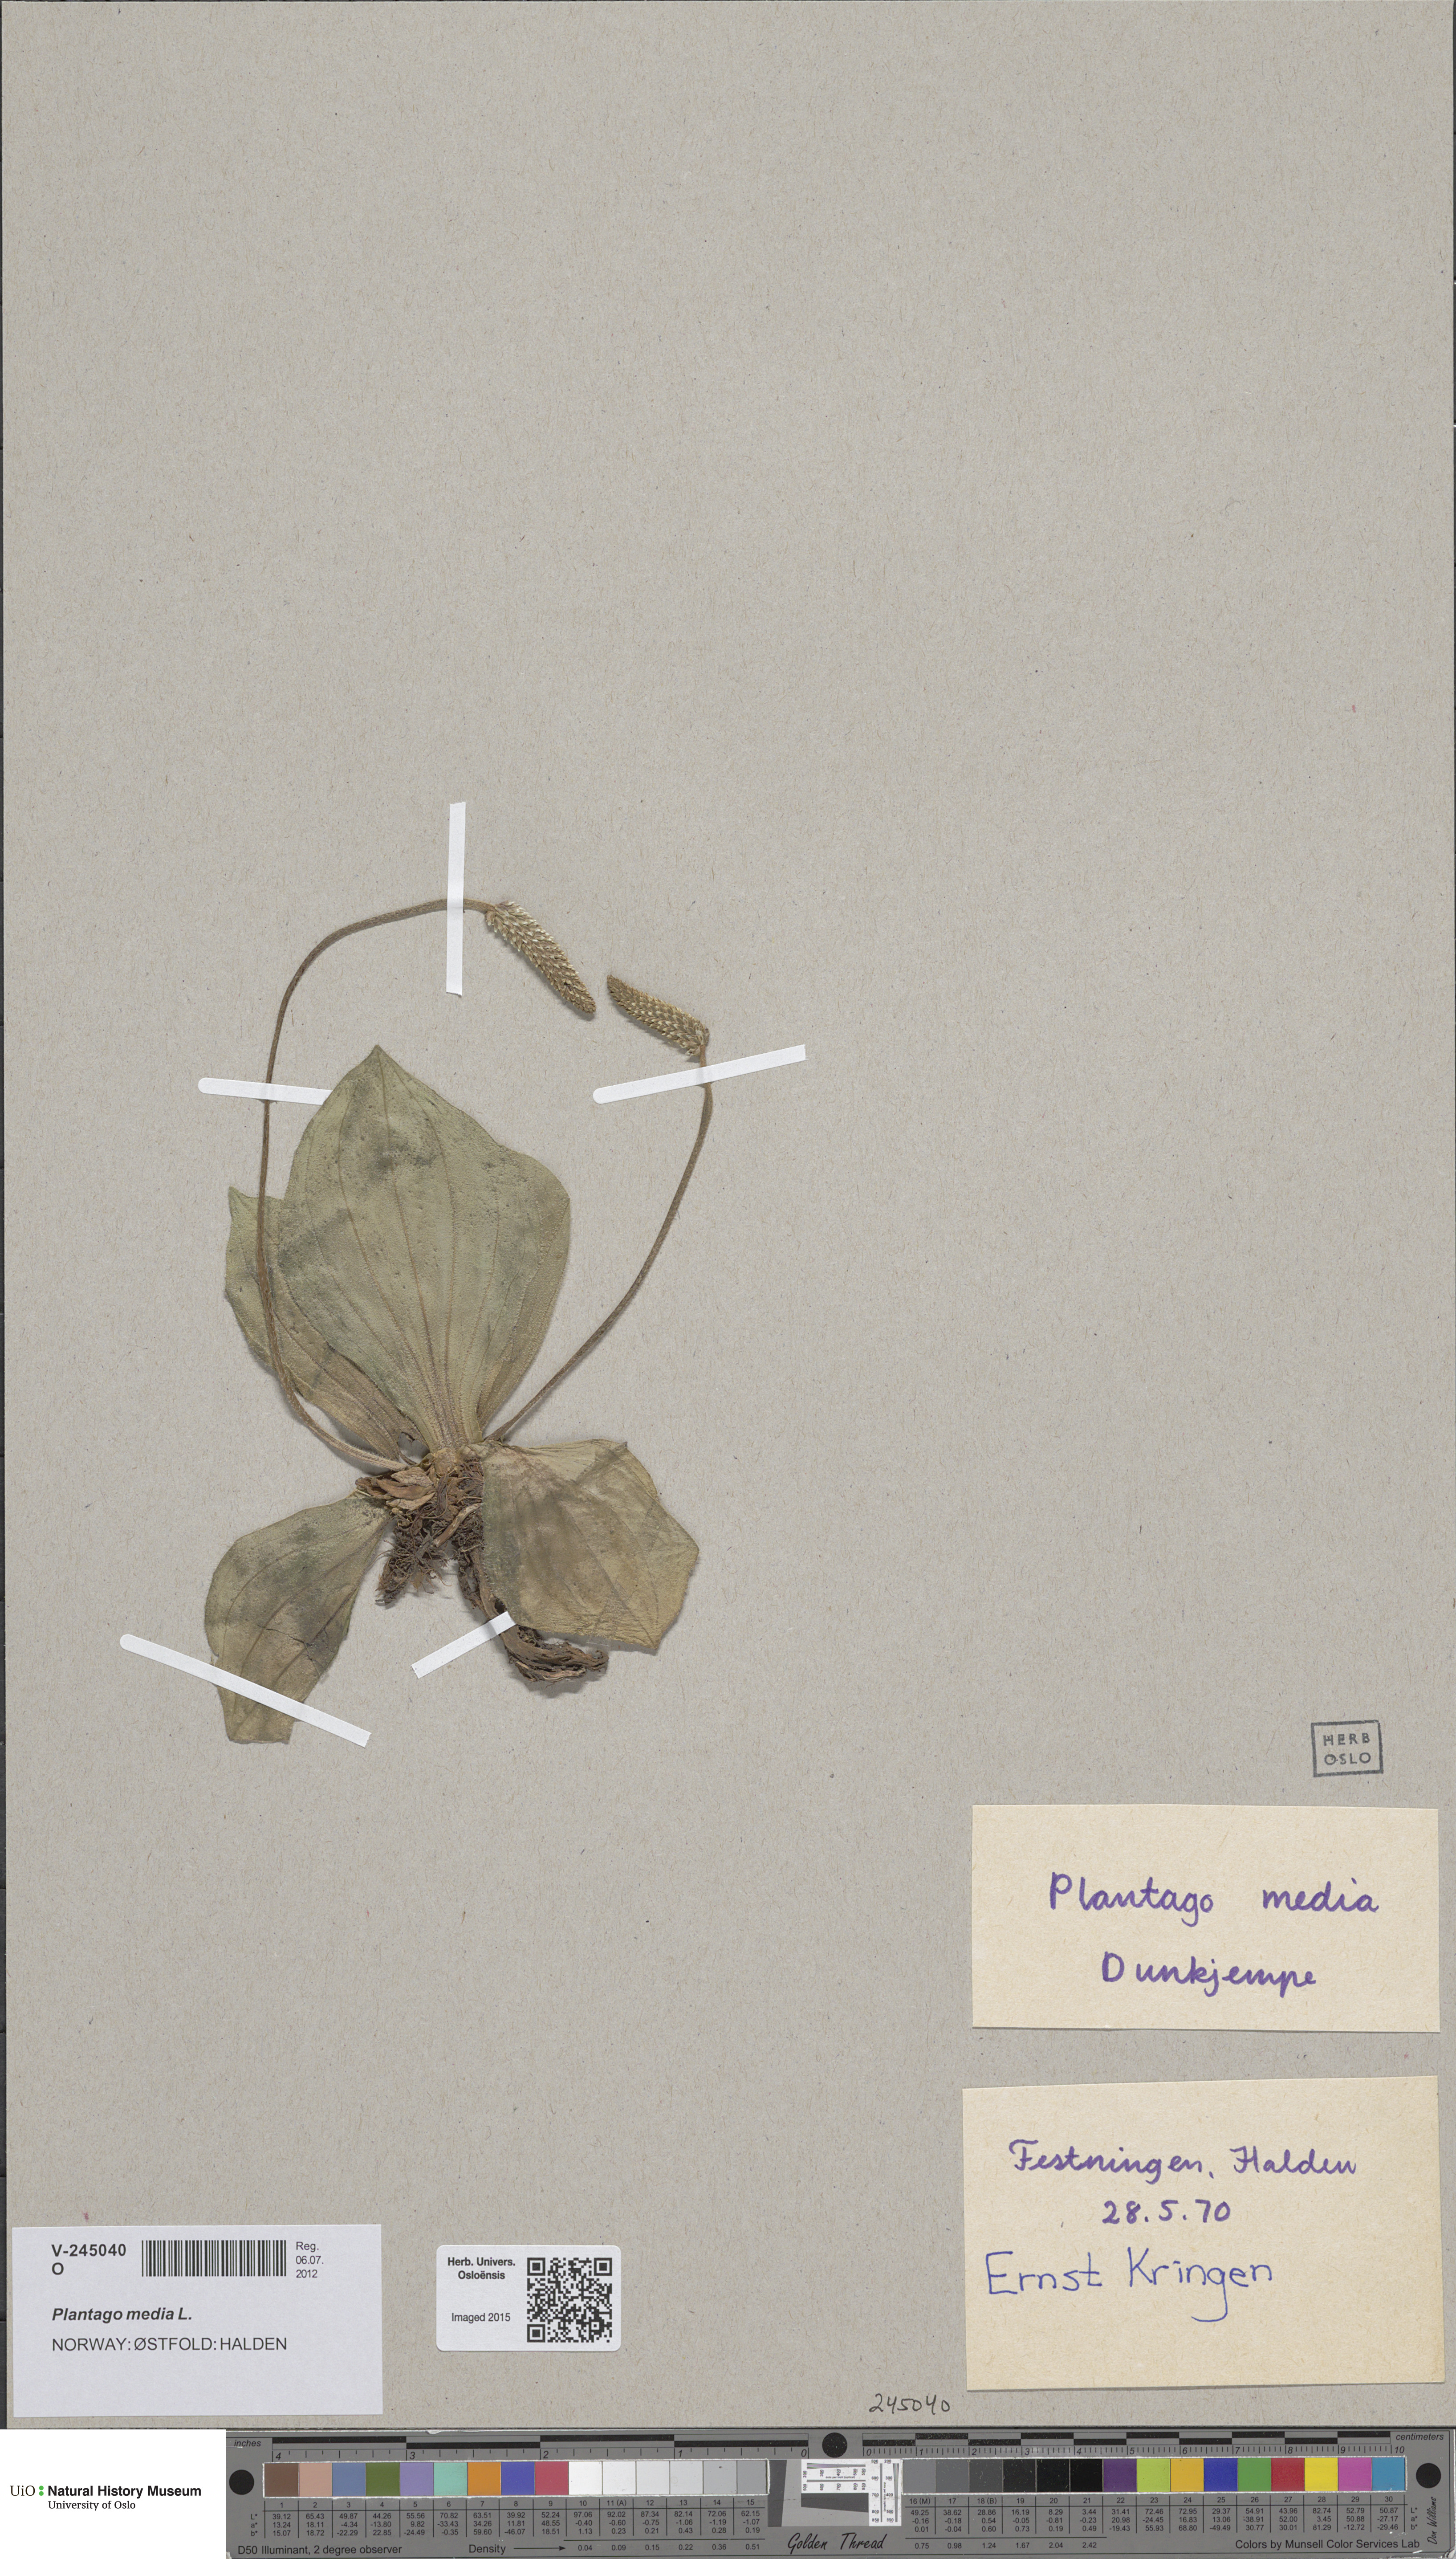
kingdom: Plantae
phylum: Tracheophyta
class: Magnoliopsida
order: Lamiales
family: Plantaginaceae
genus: Plantago
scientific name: Plantago media
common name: Hoary plantain
